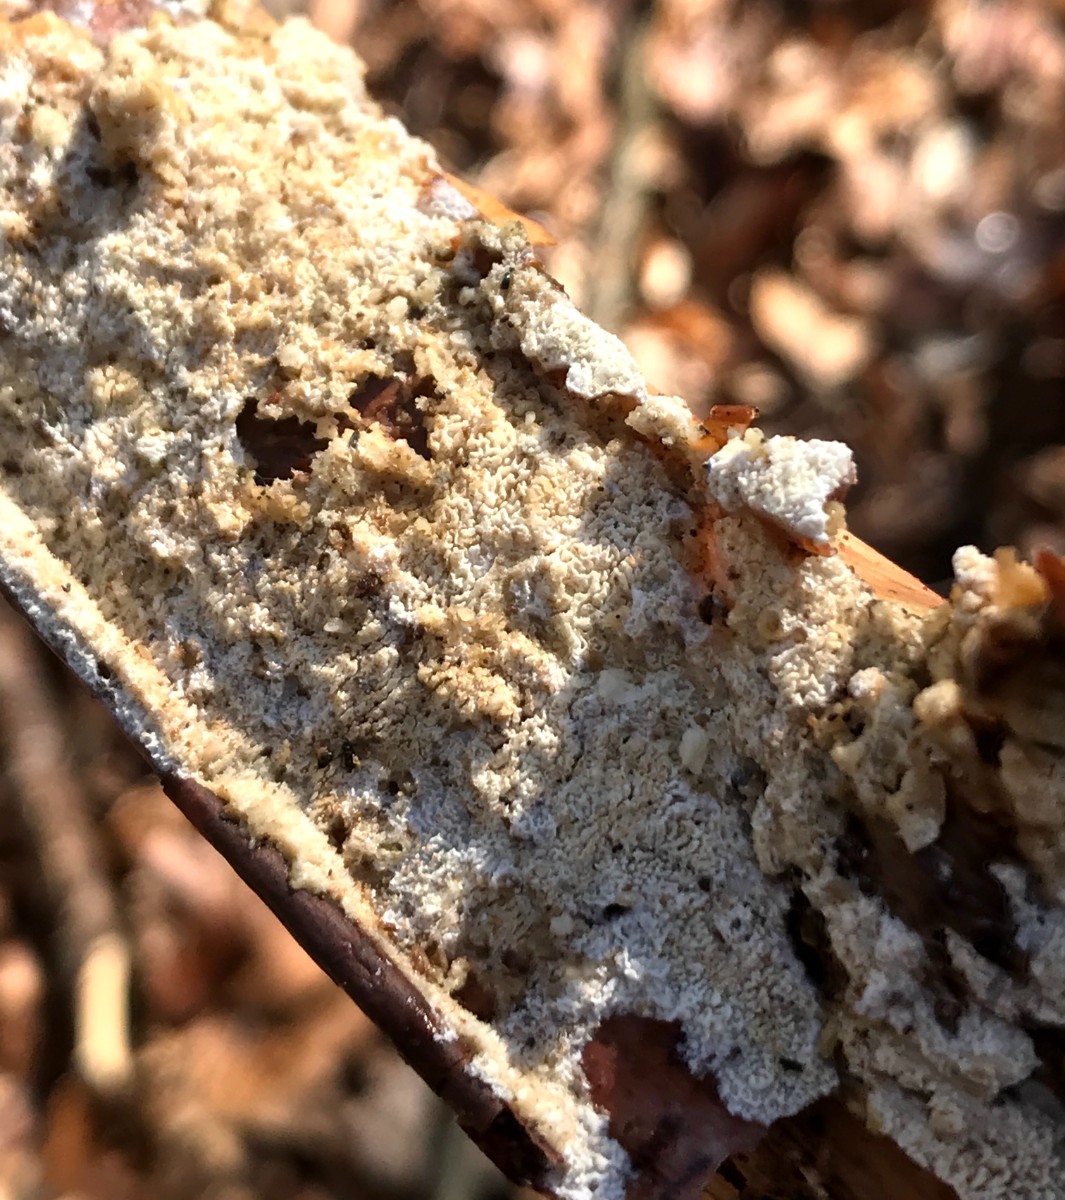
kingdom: Fungi
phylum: Basidiomycota
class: Agaricomycetes
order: Hymenochaetales
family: Schizoporaceae
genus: Xylodon
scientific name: Xylodon subtropicus
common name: labyrint-tandsvamp
